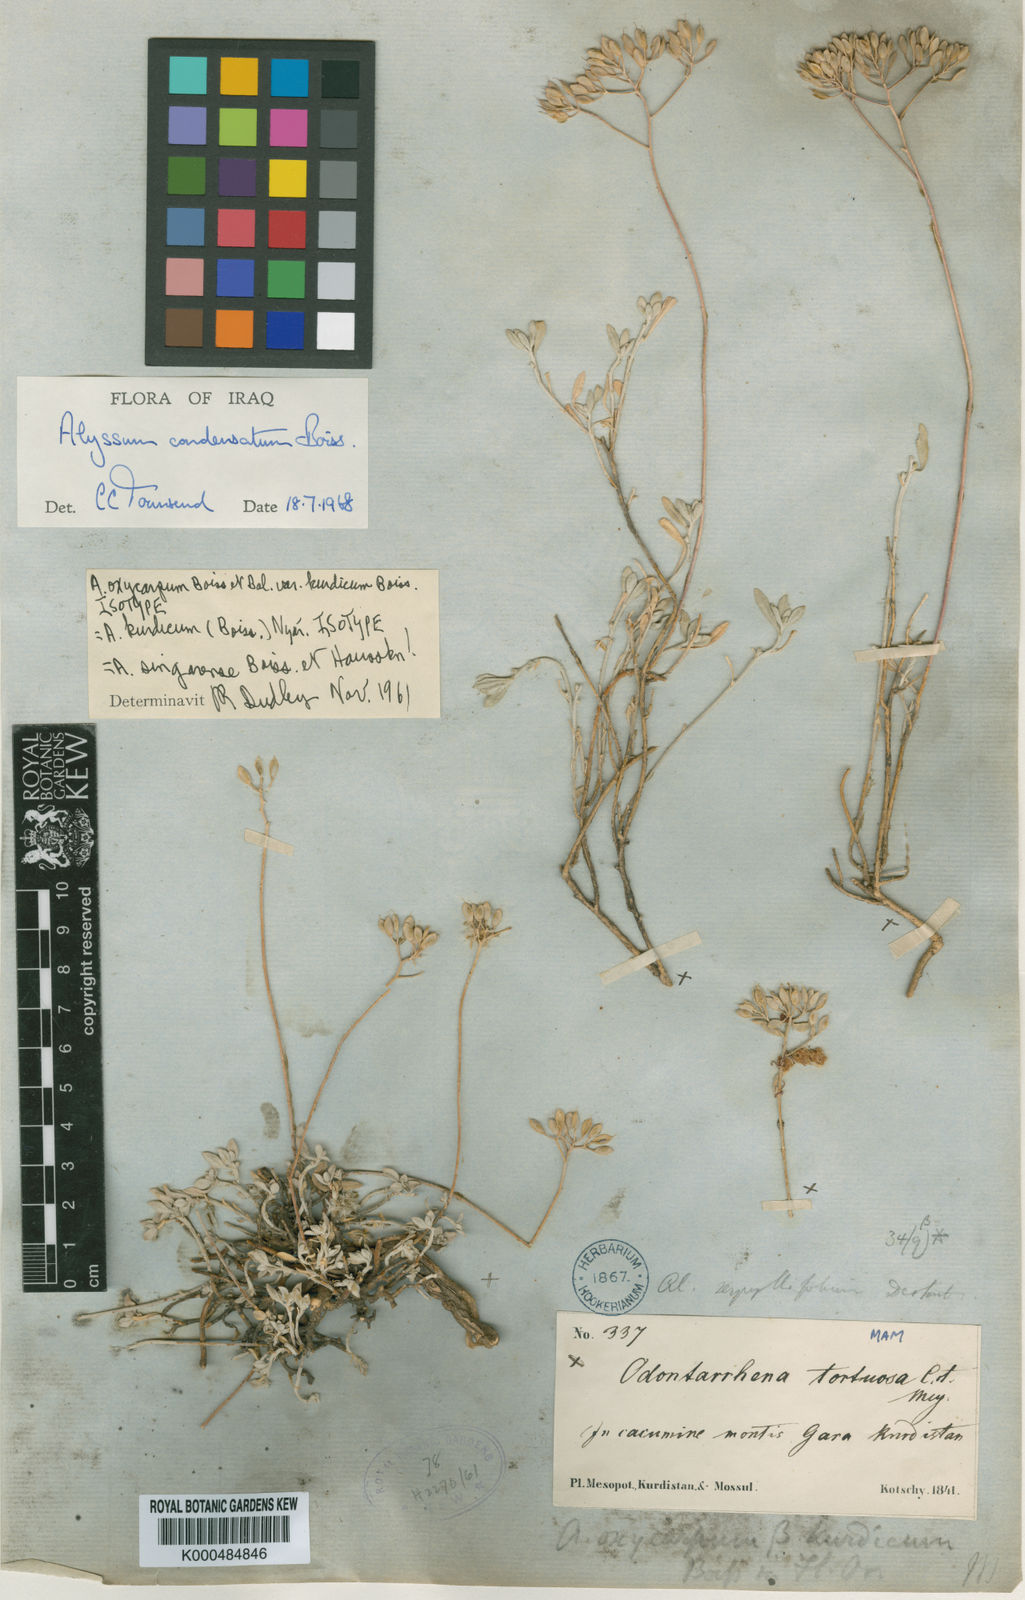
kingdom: Plantae
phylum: Tracheophyta
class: Magnoliopsida
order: Brassicales
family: Brassicaceae
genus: Odontarrhena
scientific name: Odontarrhena
